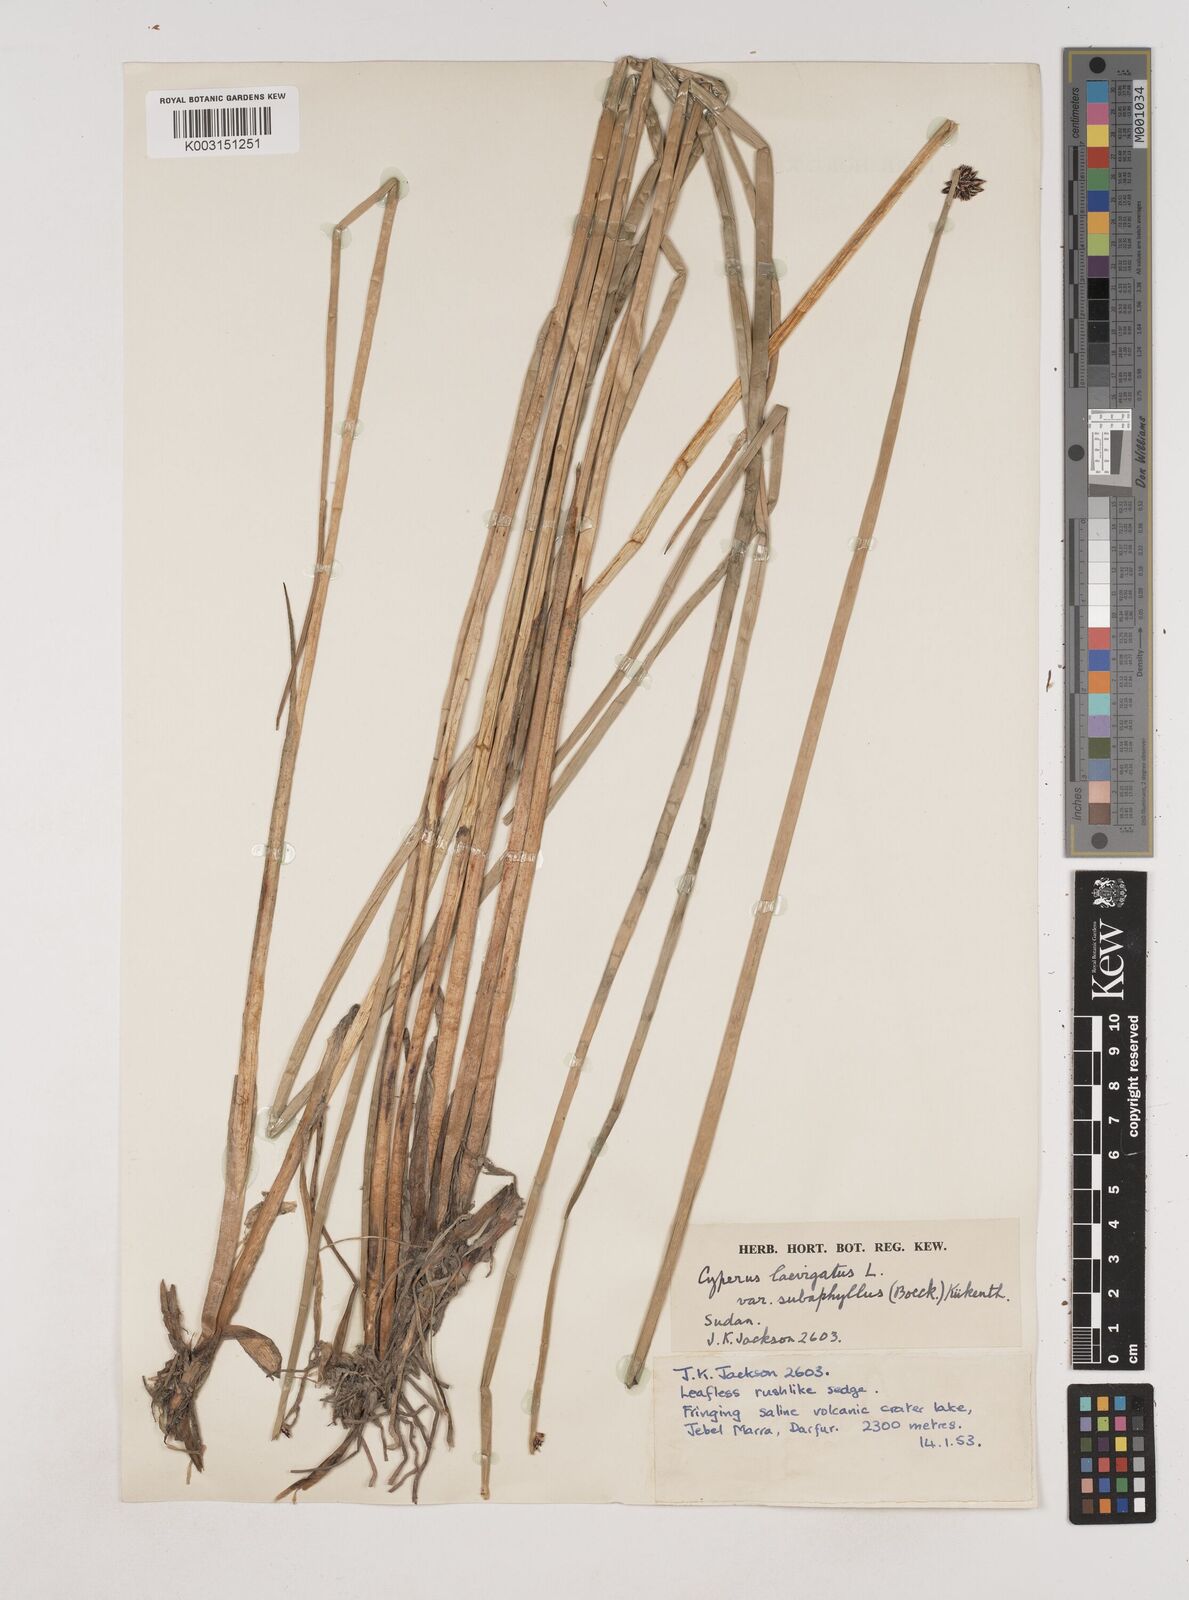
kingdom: Plantae
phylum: Tracheophyta
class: Liliopsida
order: Poales
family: Cyperaceae
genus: Cyperus
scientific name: Cyperus laevigatus
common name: Smooth flat sedge
